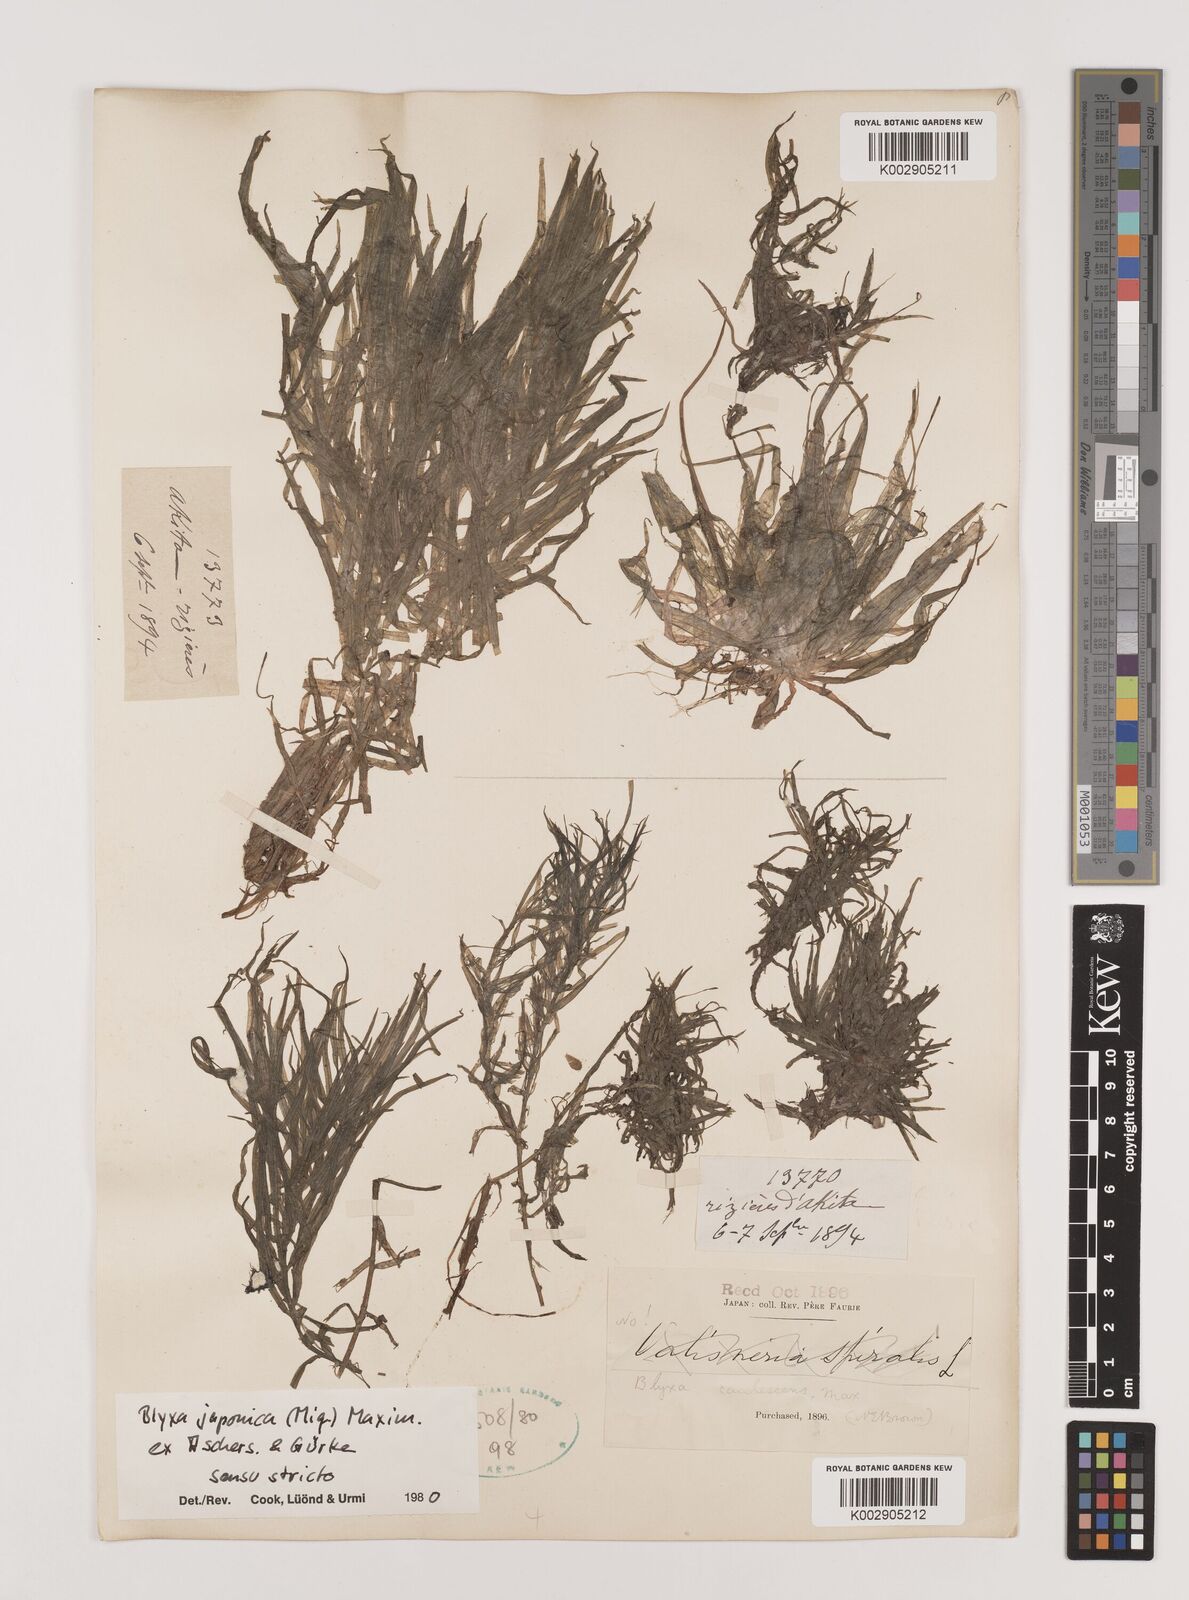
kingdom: Plantae
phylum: Tracheophyta
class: Liliopsida
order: Alismatales
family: Hydrocharitaceae
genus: Blyxa
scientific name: Blyxa japonica
